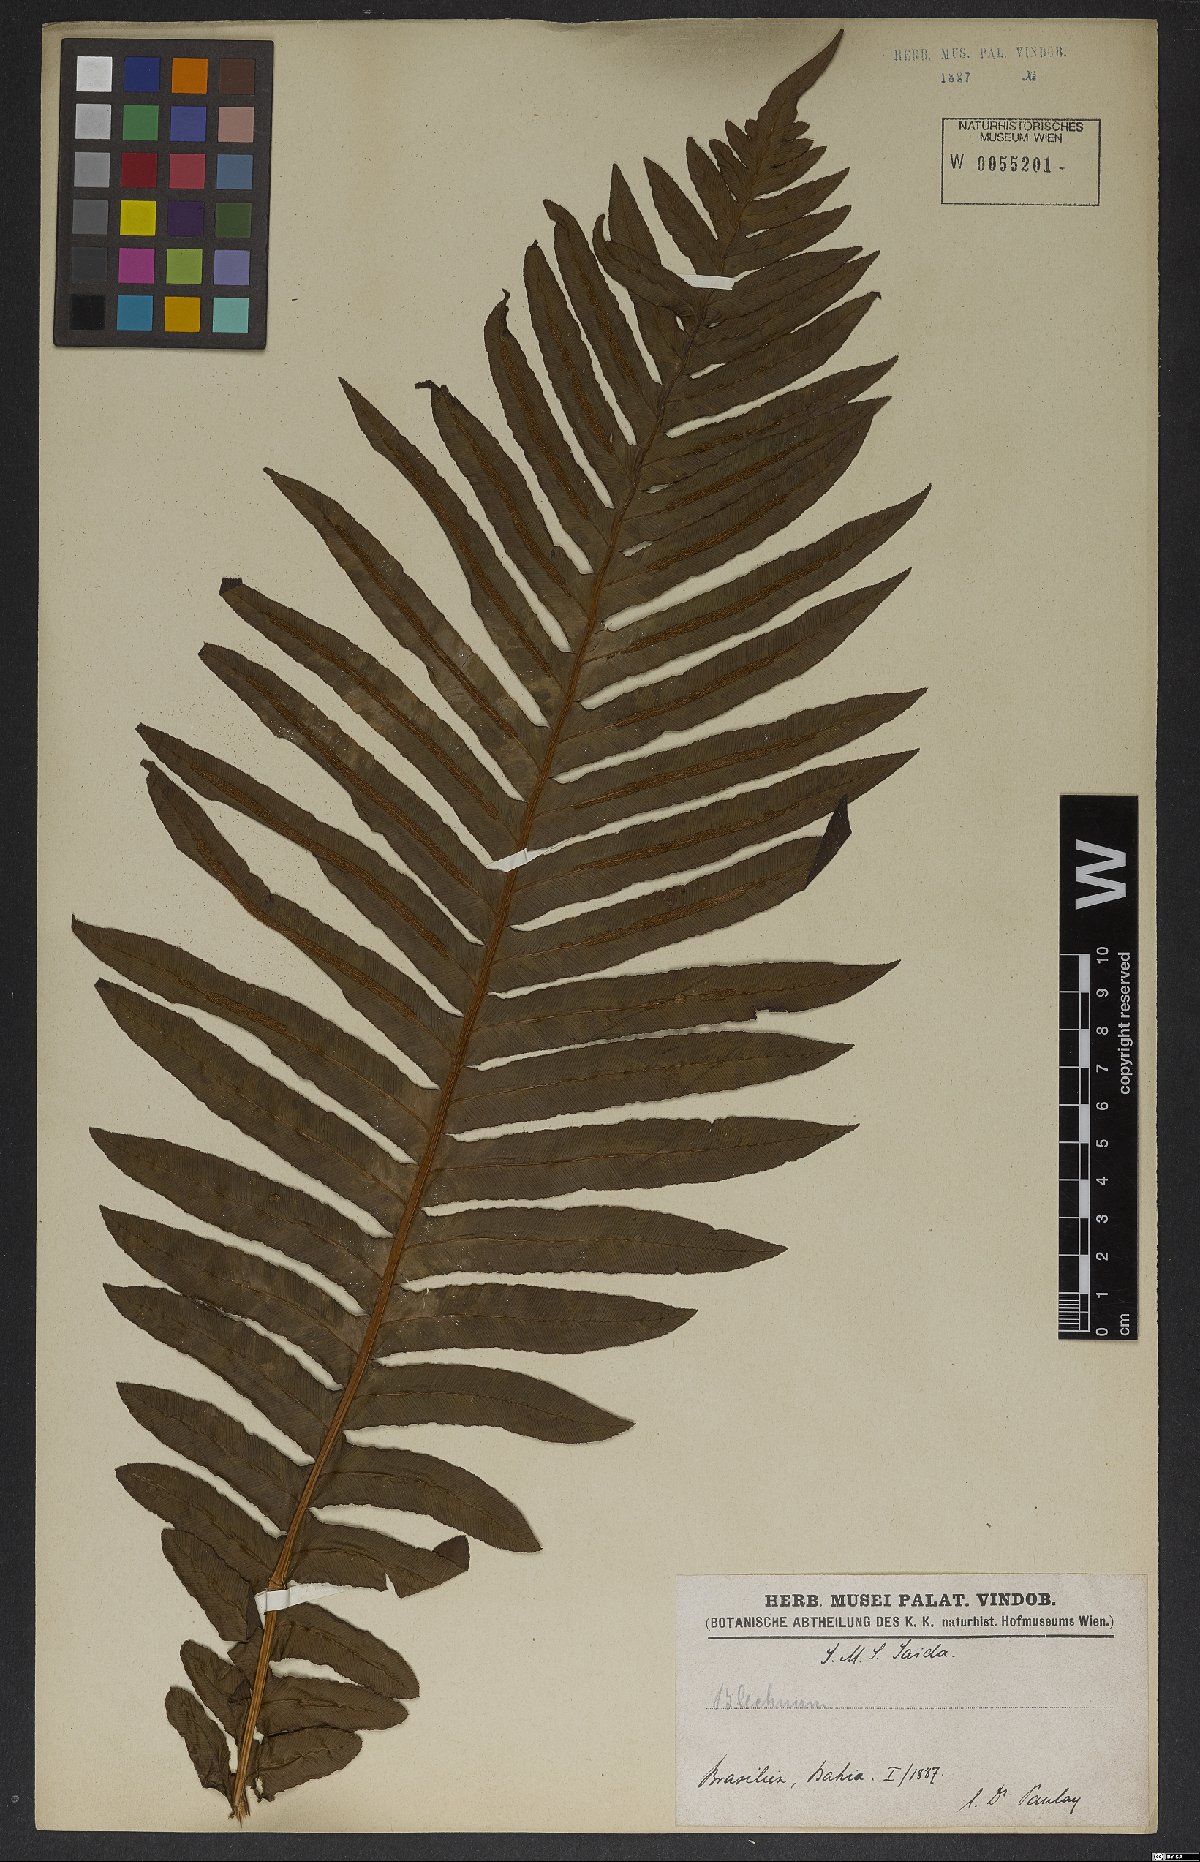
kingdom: Plantae
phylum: Tracheophyta
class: Polypodiopsida
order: Polypodiales
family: Blechnaceae
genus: Neoblechnum
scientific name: Neoblechnum brasiliense
